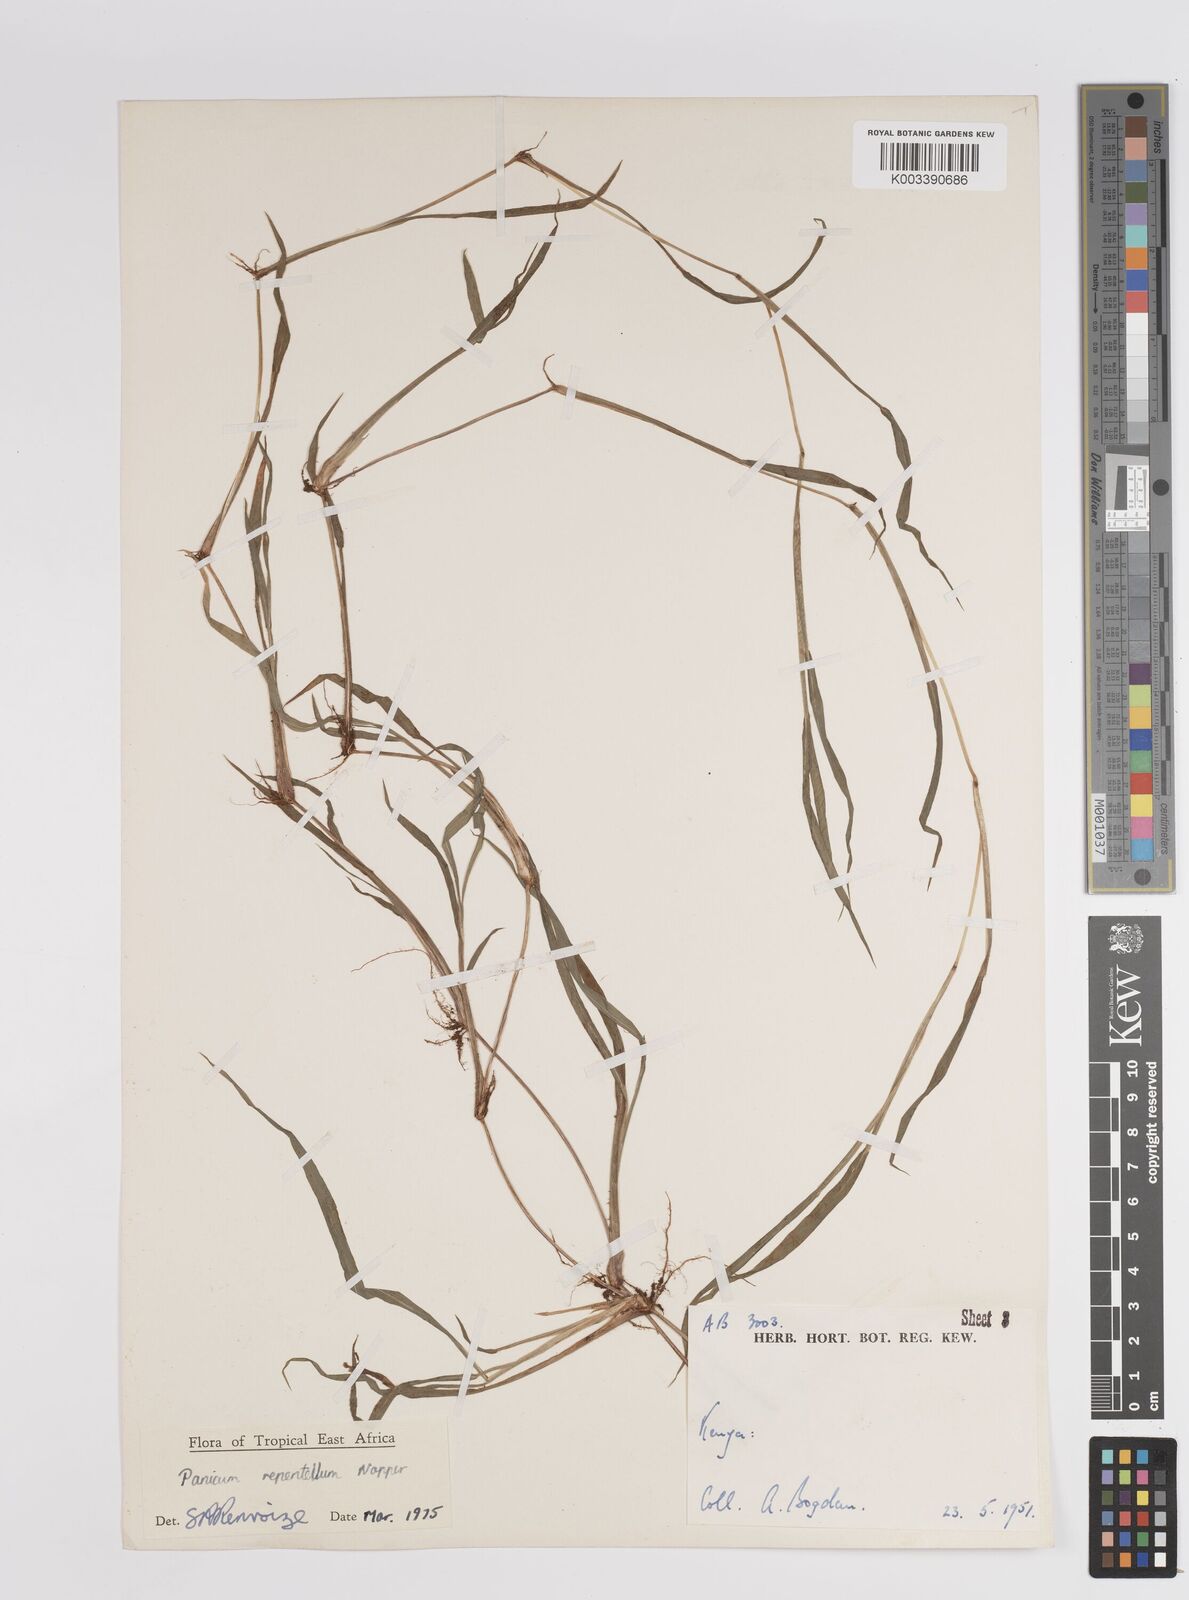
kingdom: Plantae
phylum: Tracheophyta
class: Liliopsida
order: Poales
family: Poaceae
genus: Panicum
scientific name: Panicum hygrocharis
